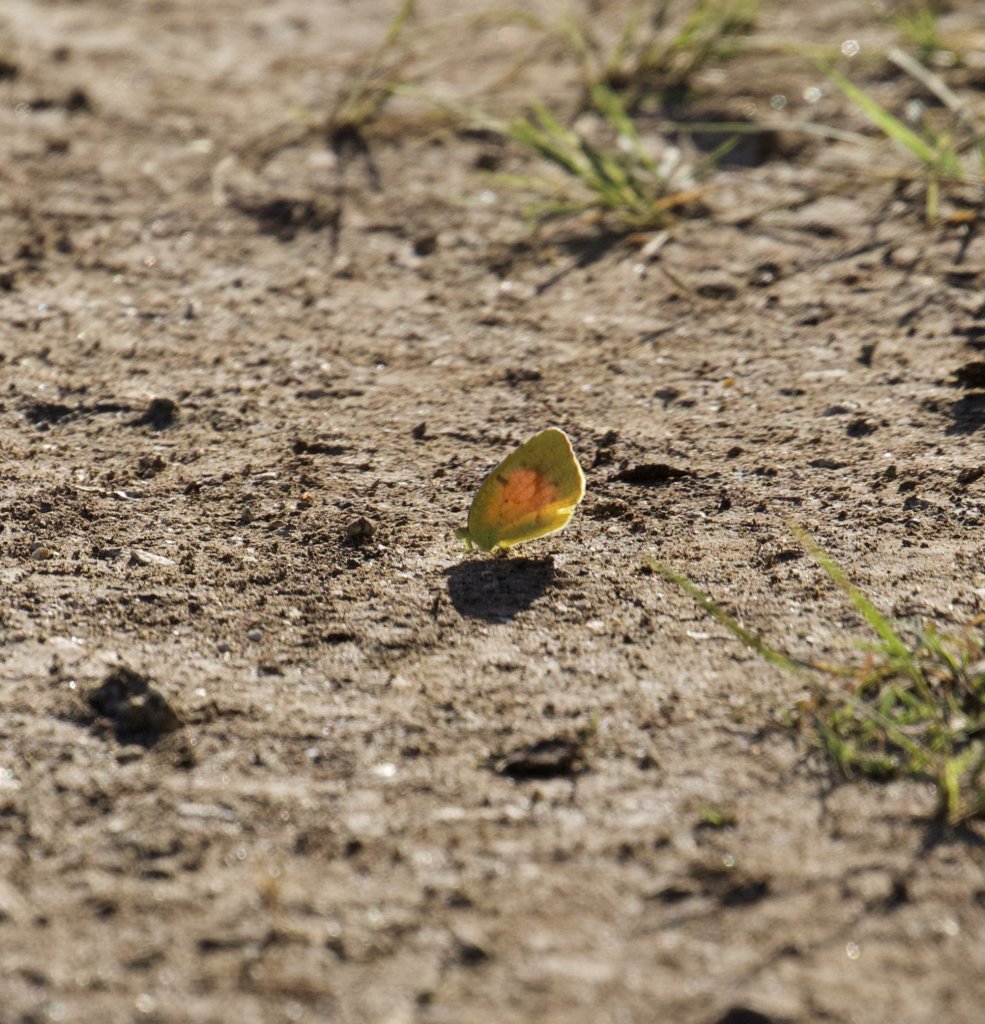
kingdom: Animalia
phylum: Arthropoda
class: Insecta
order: Lepidoptera
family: Pieridae
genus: Abaeis
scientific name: Abaeis nicippe
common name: Sleepy Orange
